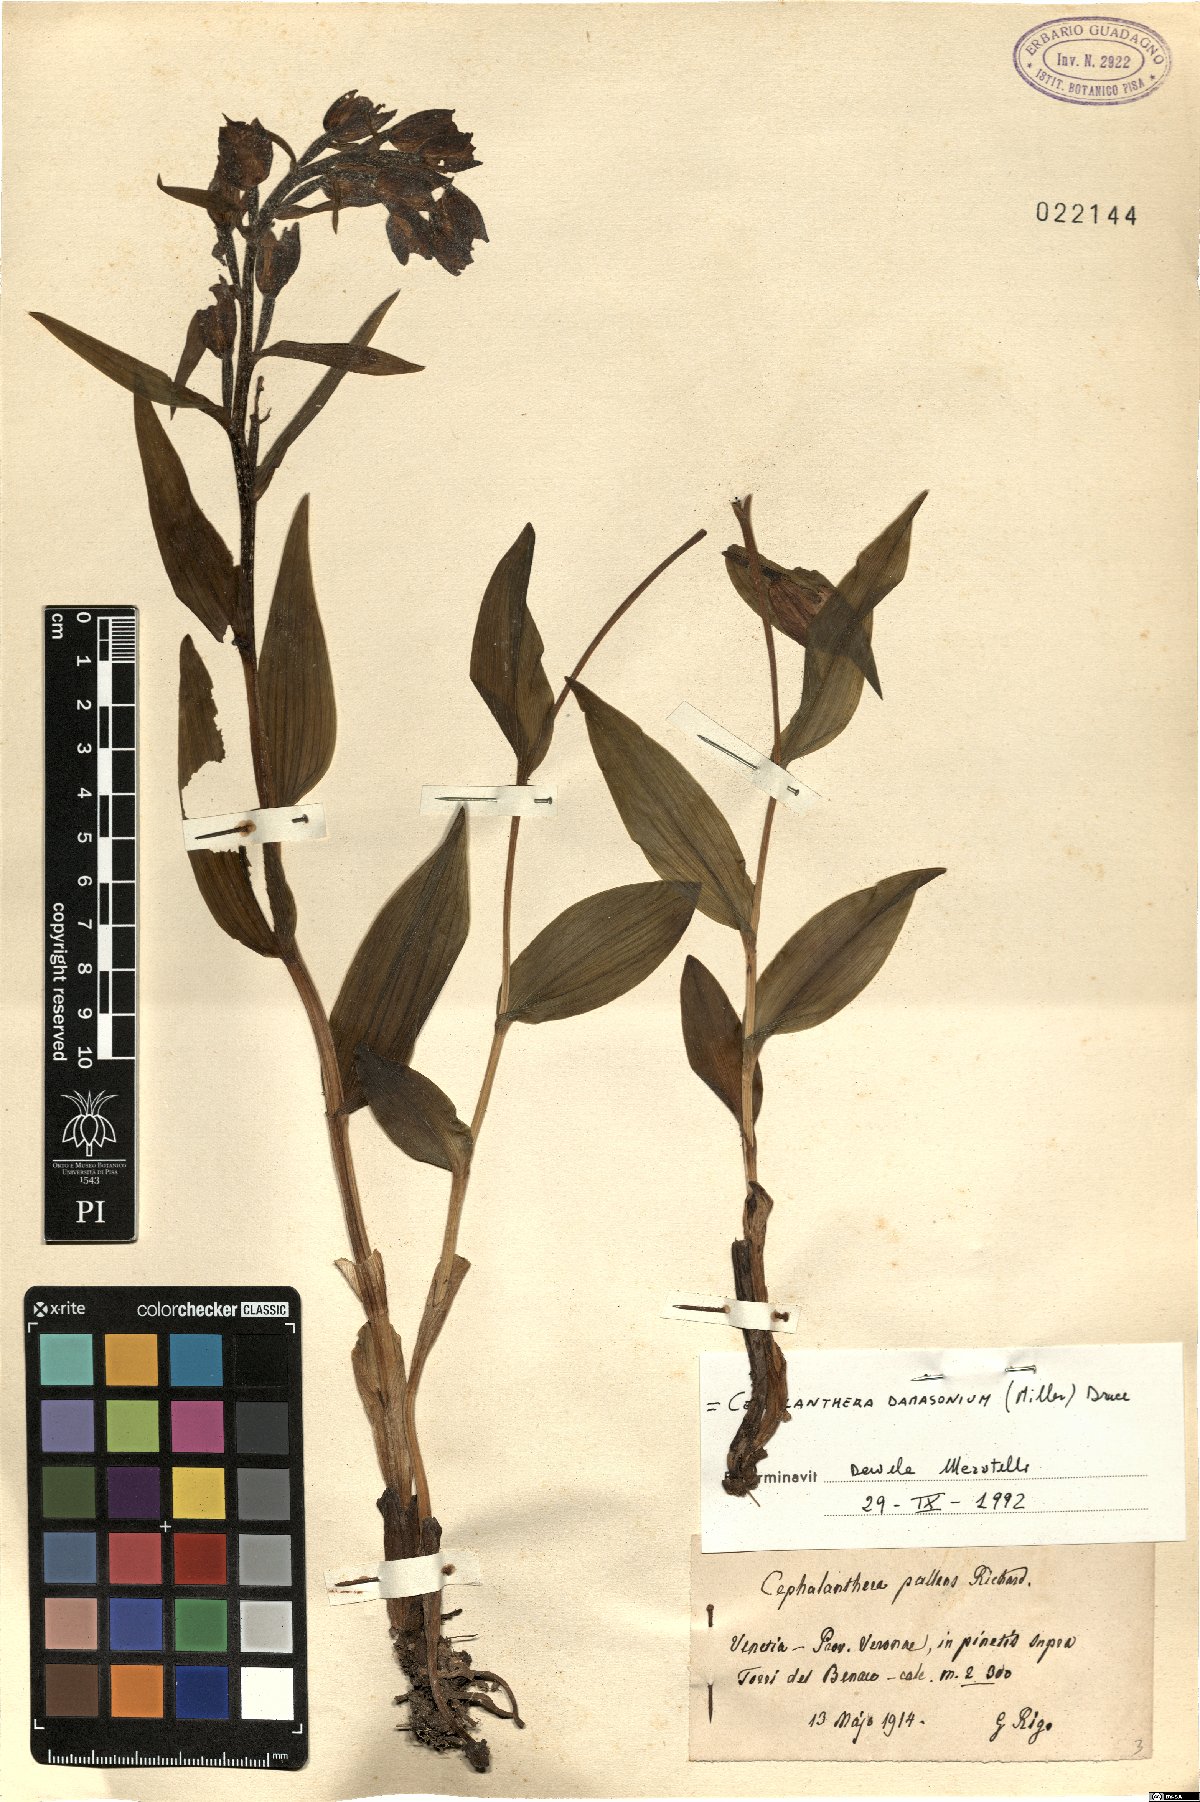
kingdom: Plantae
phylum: Tracheophyta
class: Liliopsida
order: Asparagales
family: Orchidaceae
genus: Cephalanthera
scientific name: Cephalanthera damasonium
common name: White helleborine
